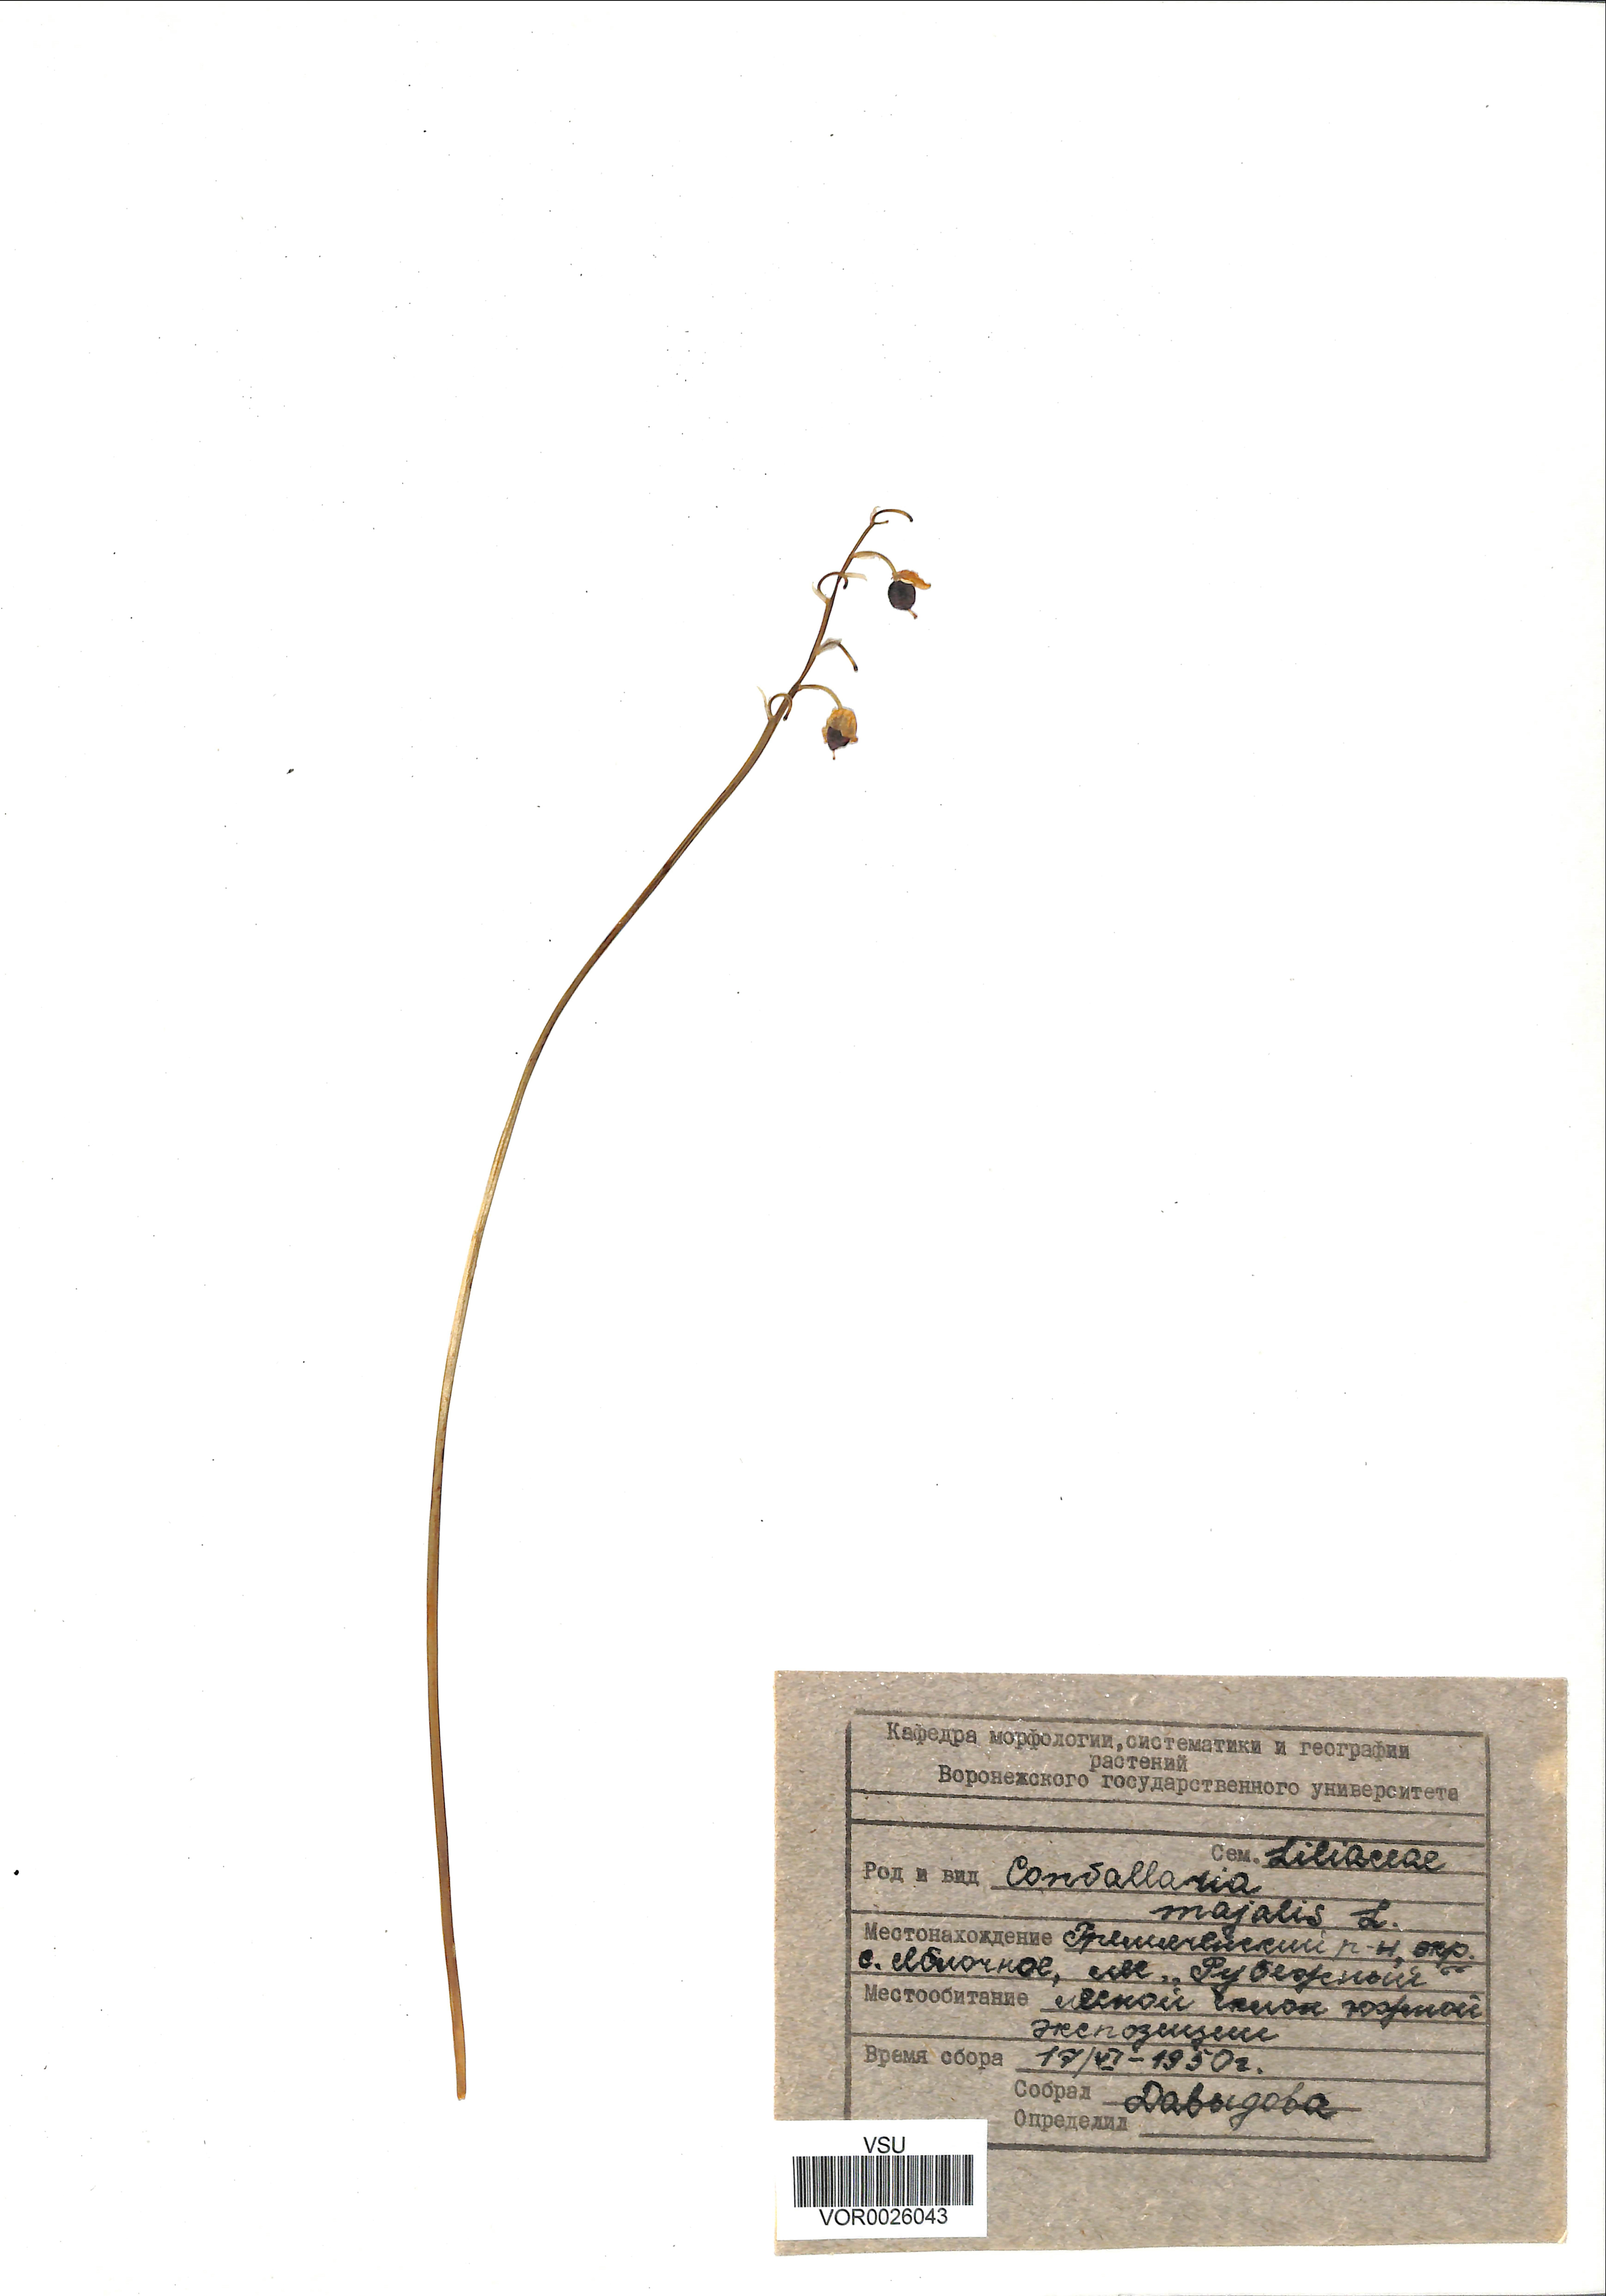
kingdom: Plantae
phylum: Tracheophyta
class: Liliopsida
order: Asparagales
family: Asparagaceae
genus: Convallaria
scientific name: Convallaria majalis
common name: Lily-of-the-valley
